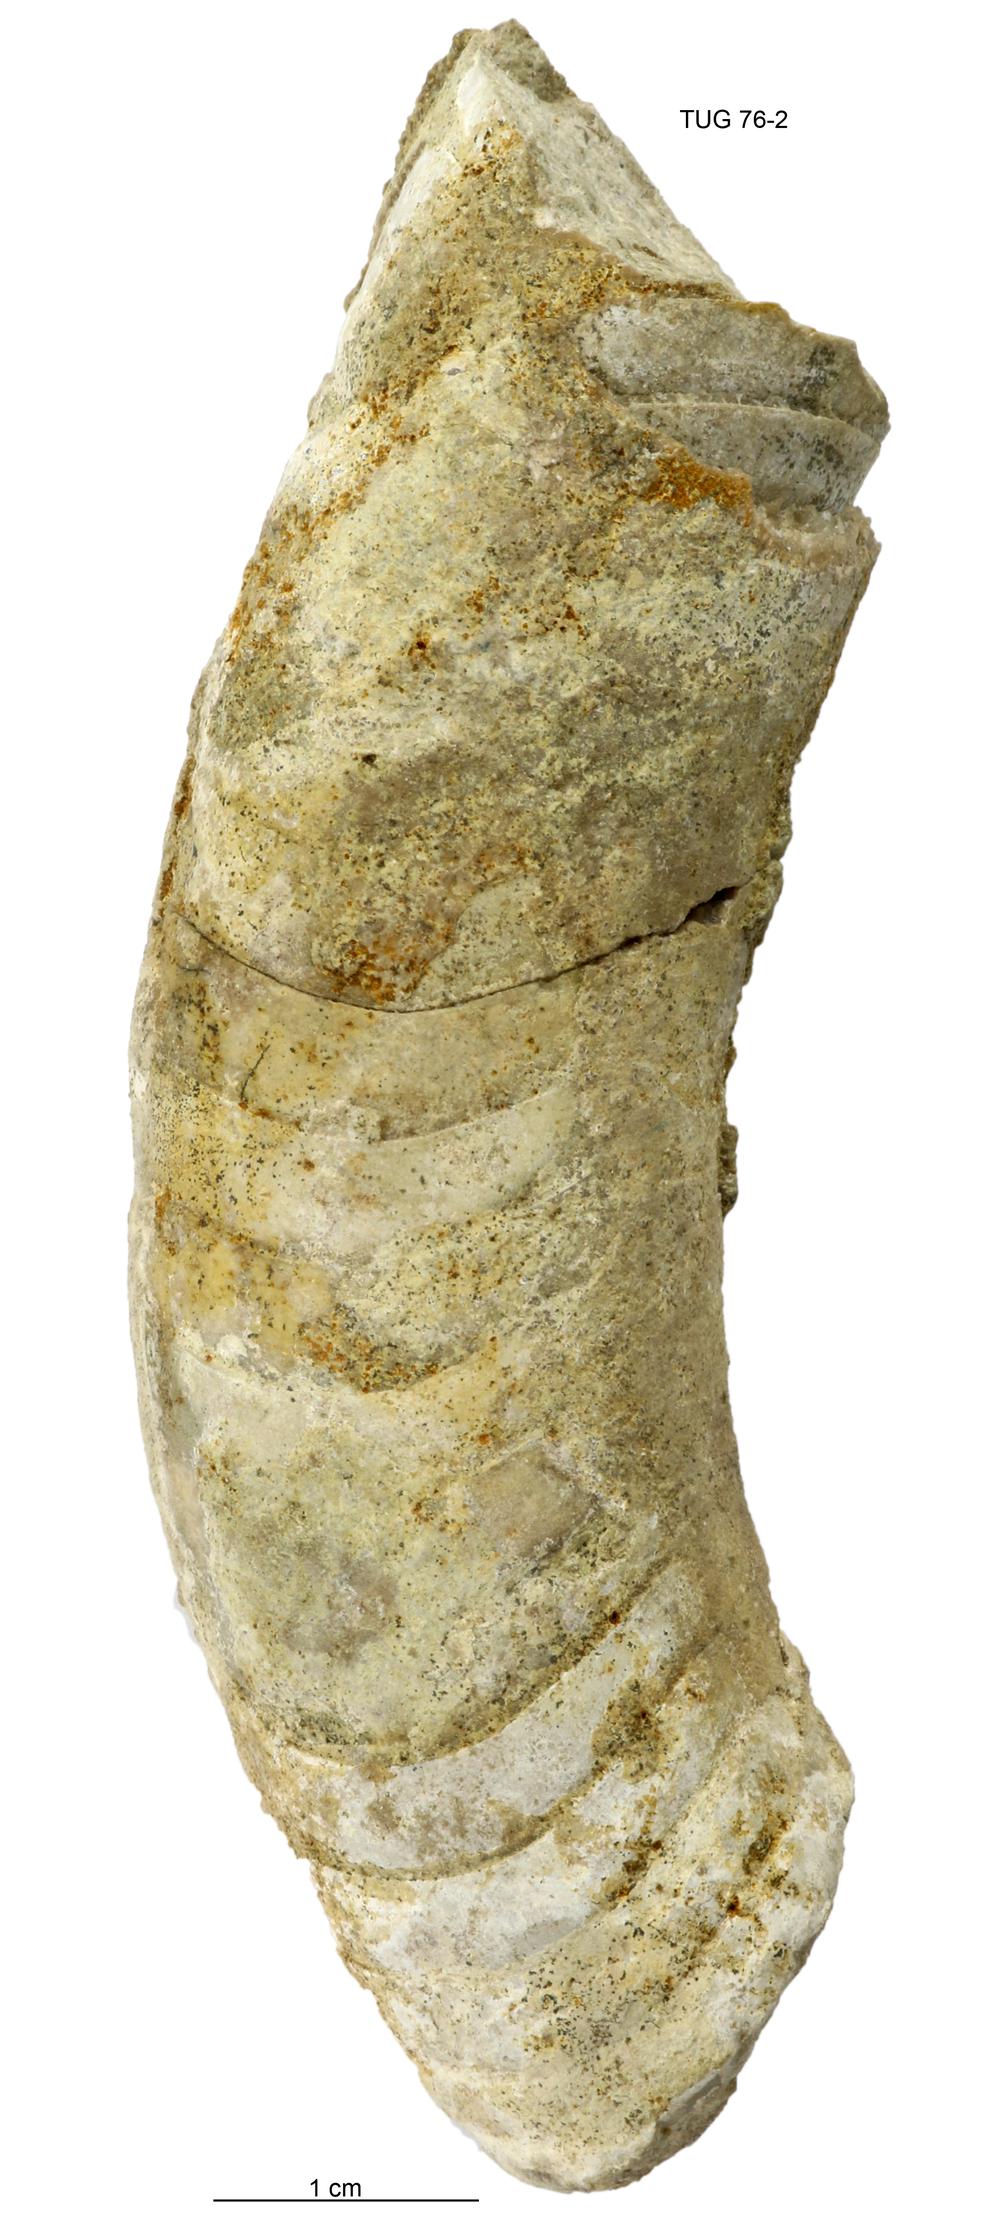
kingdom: Animalia
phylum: Mollusca
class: Cephalopoda
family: Tarphyceratidae
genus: Planctoceras
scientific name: Planctoceras
